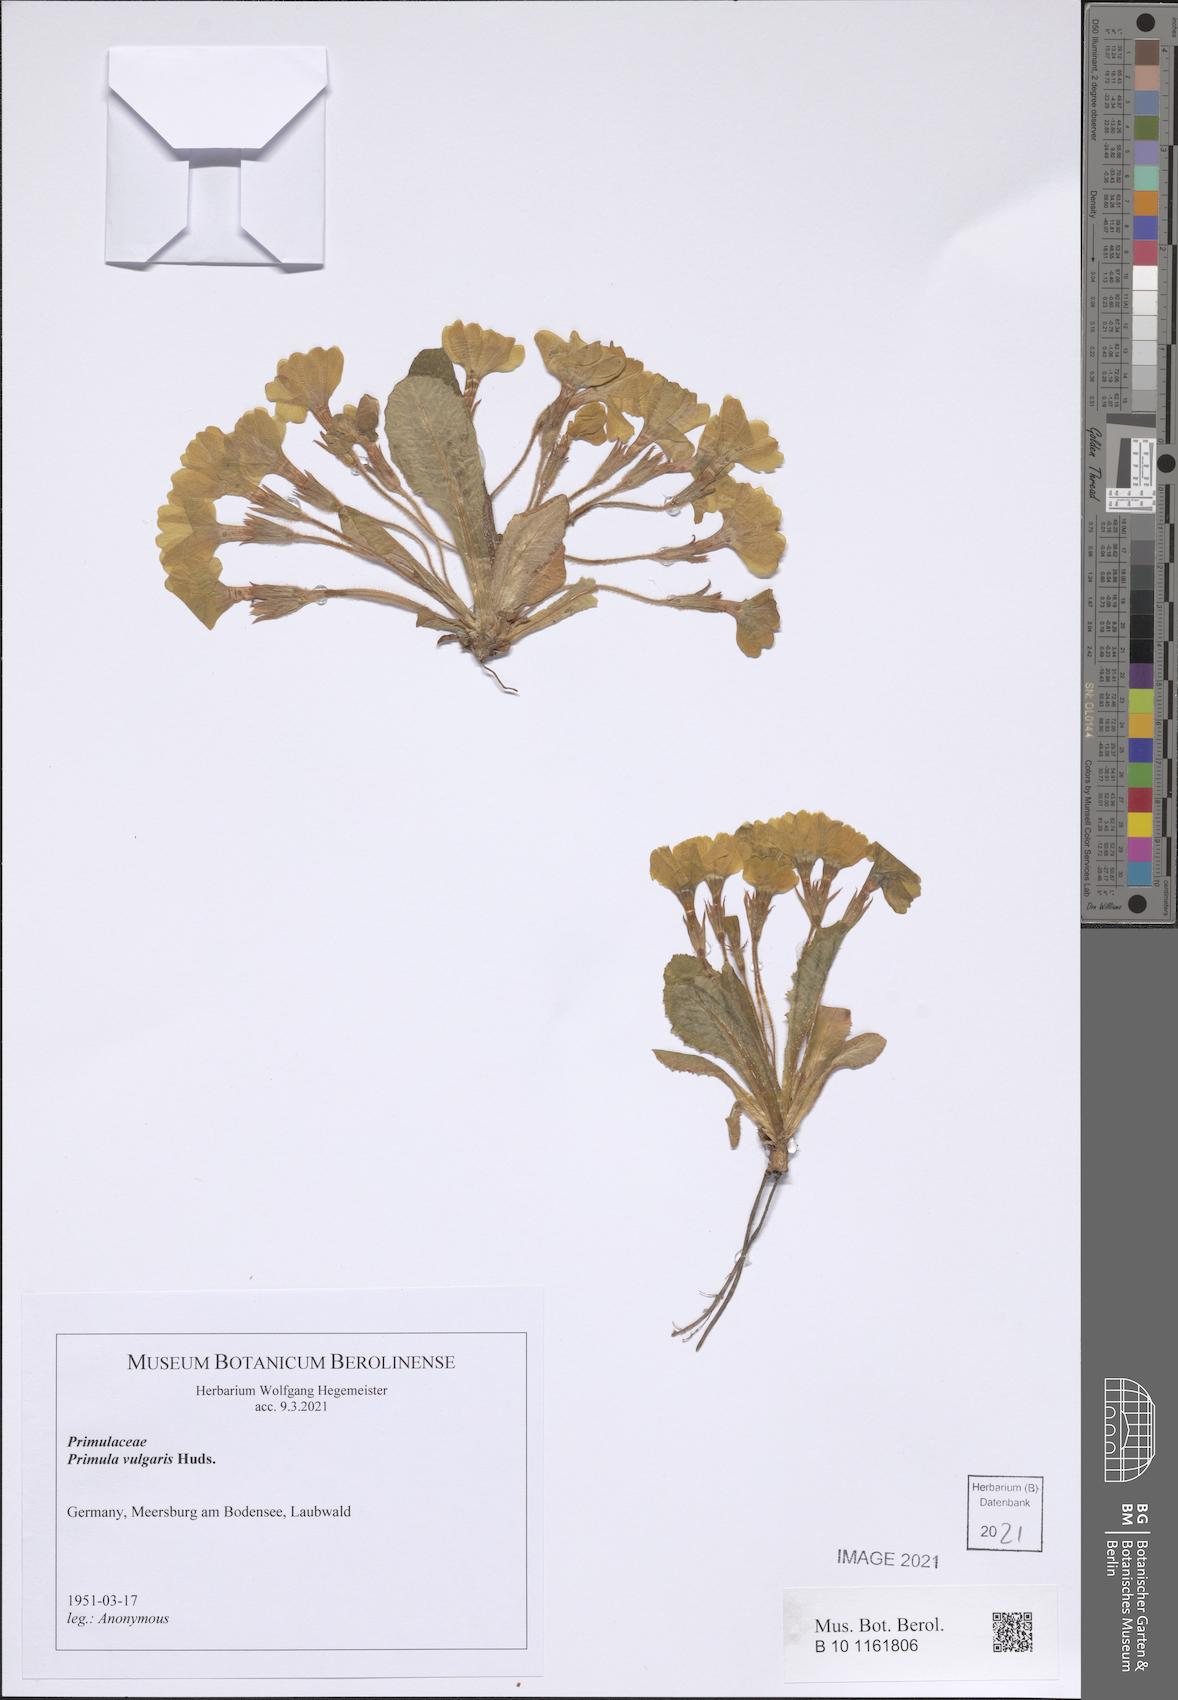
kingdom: Plantae
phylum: Tracheophyta
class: Magnoliopsida
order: Ericales
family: Primulaceae
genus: Primula
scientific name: Primula vulgaris
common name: Primrose
